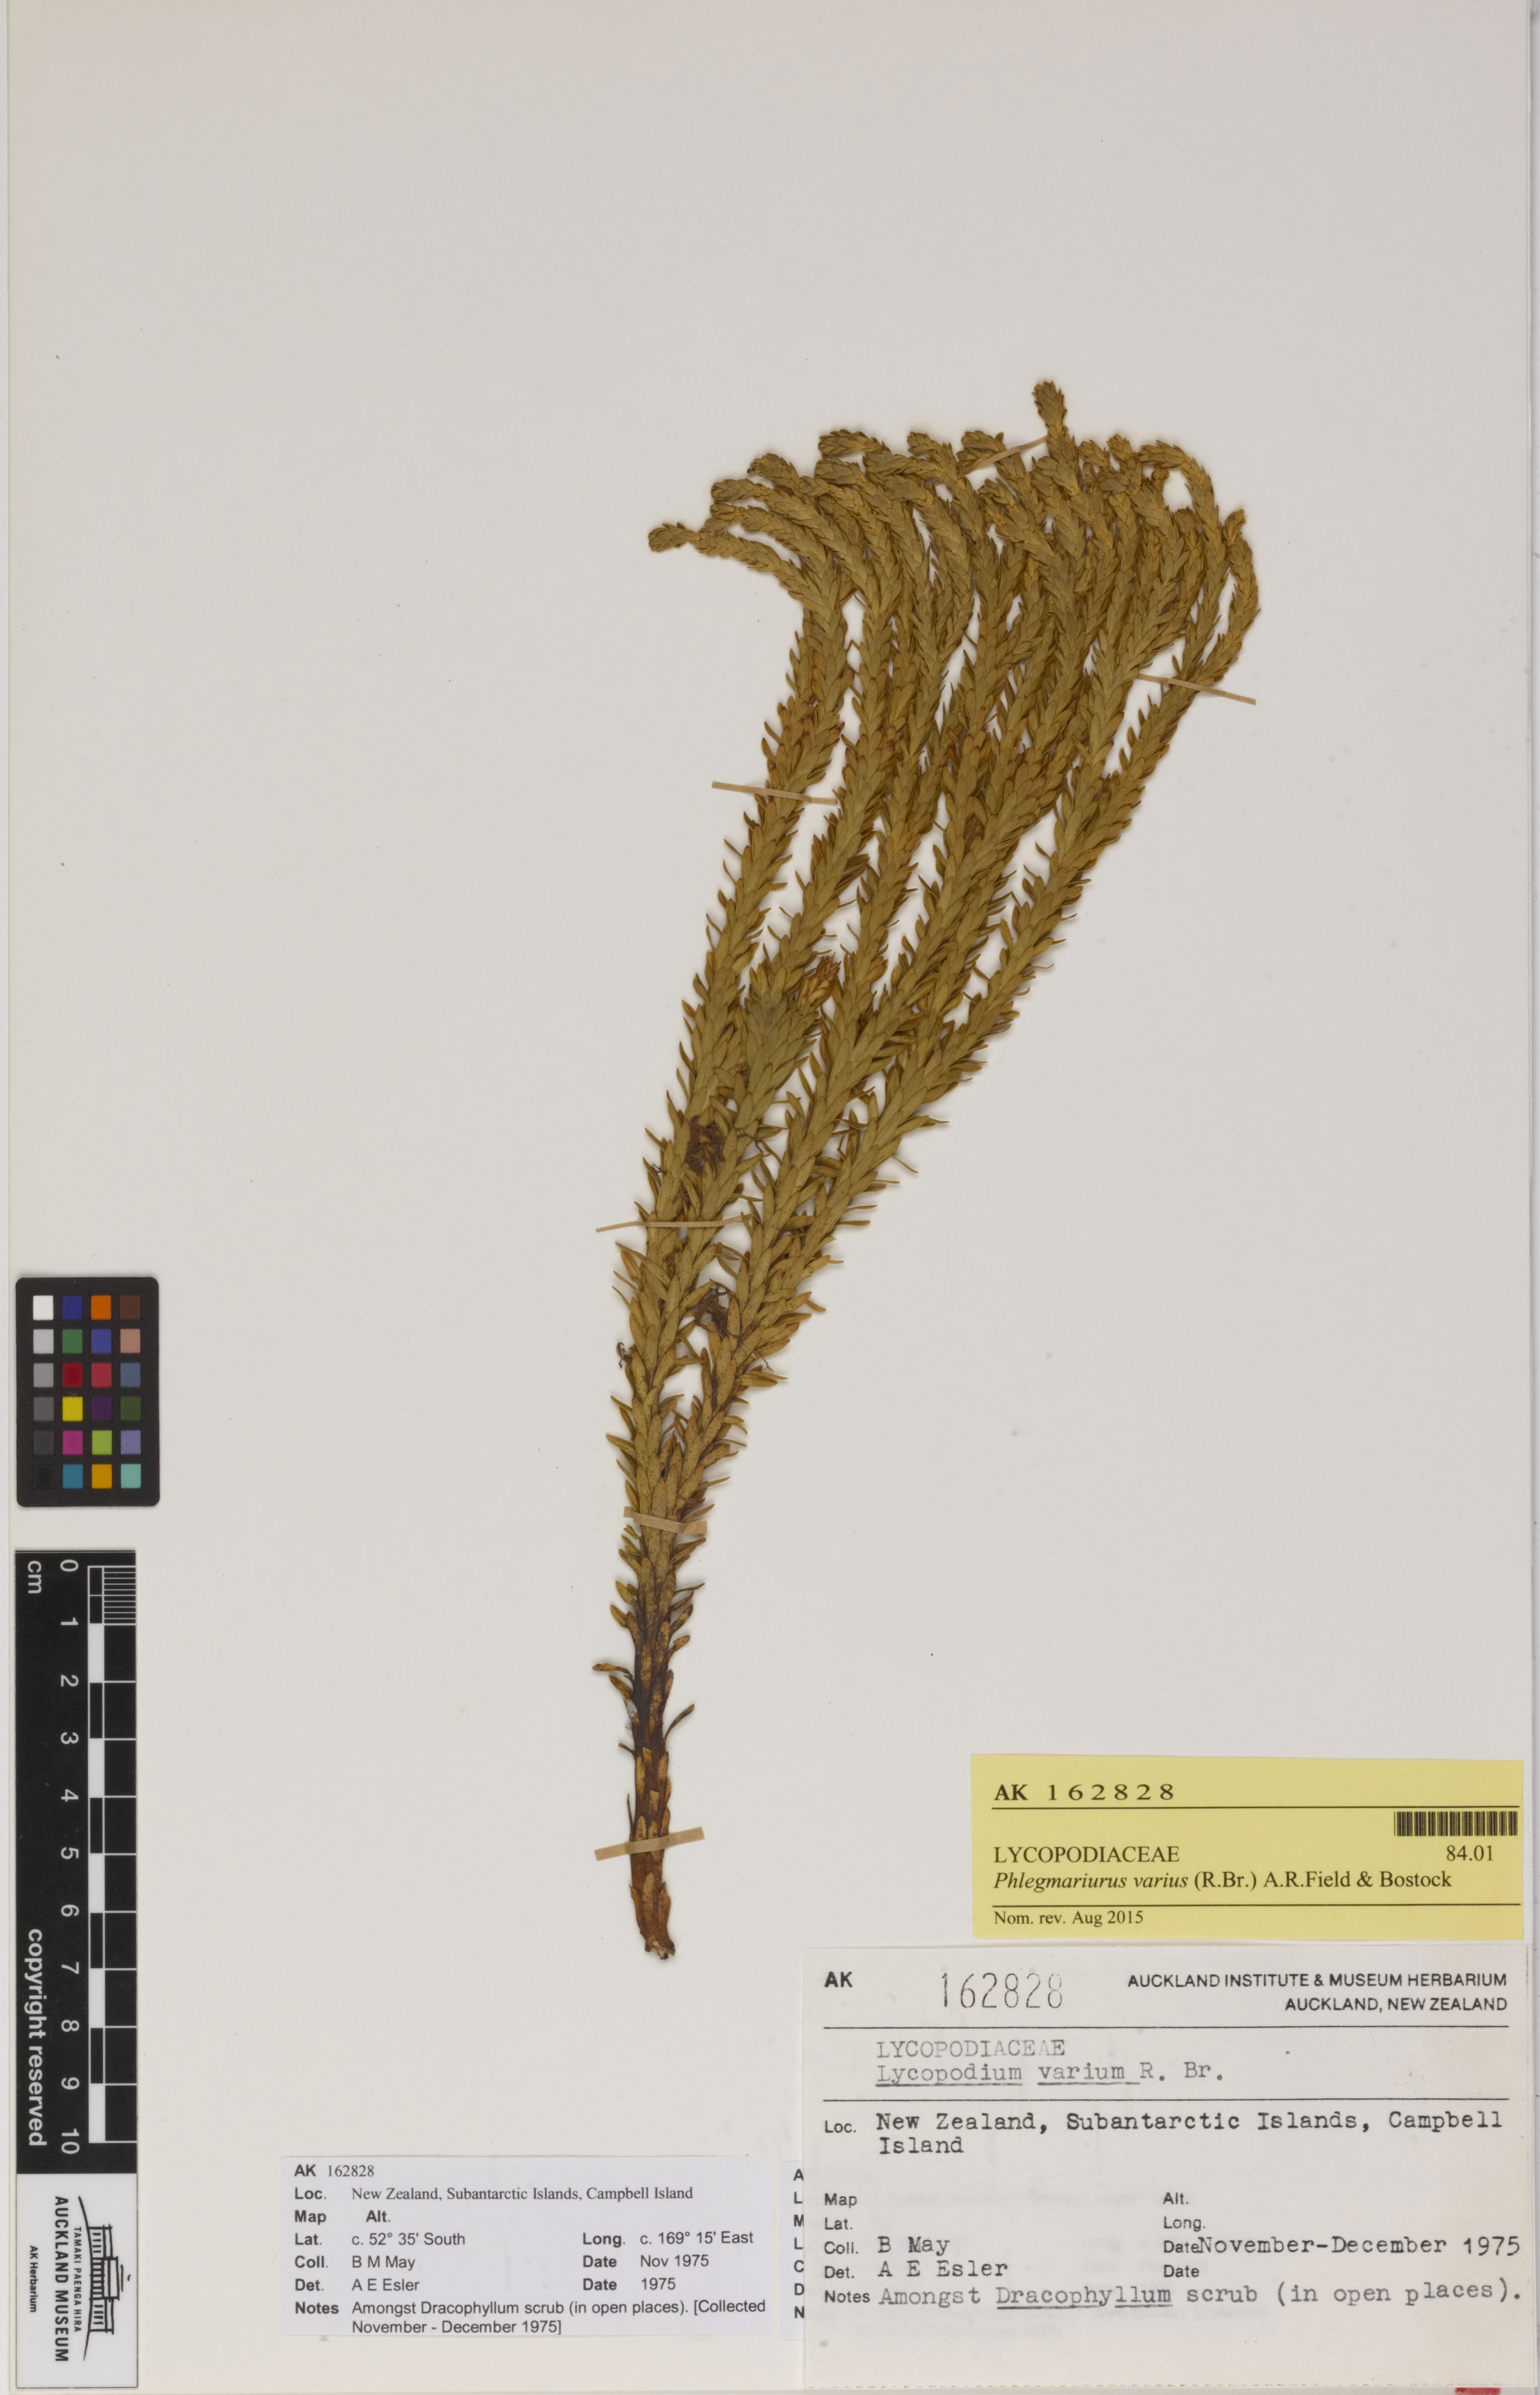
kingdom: Plantae
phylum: Tracheophyta
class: Lycopodiopsida
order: Lycopodiales
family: Lycopodiaceae
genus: Phlegmariurus
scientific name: Phlegmariurus varius
